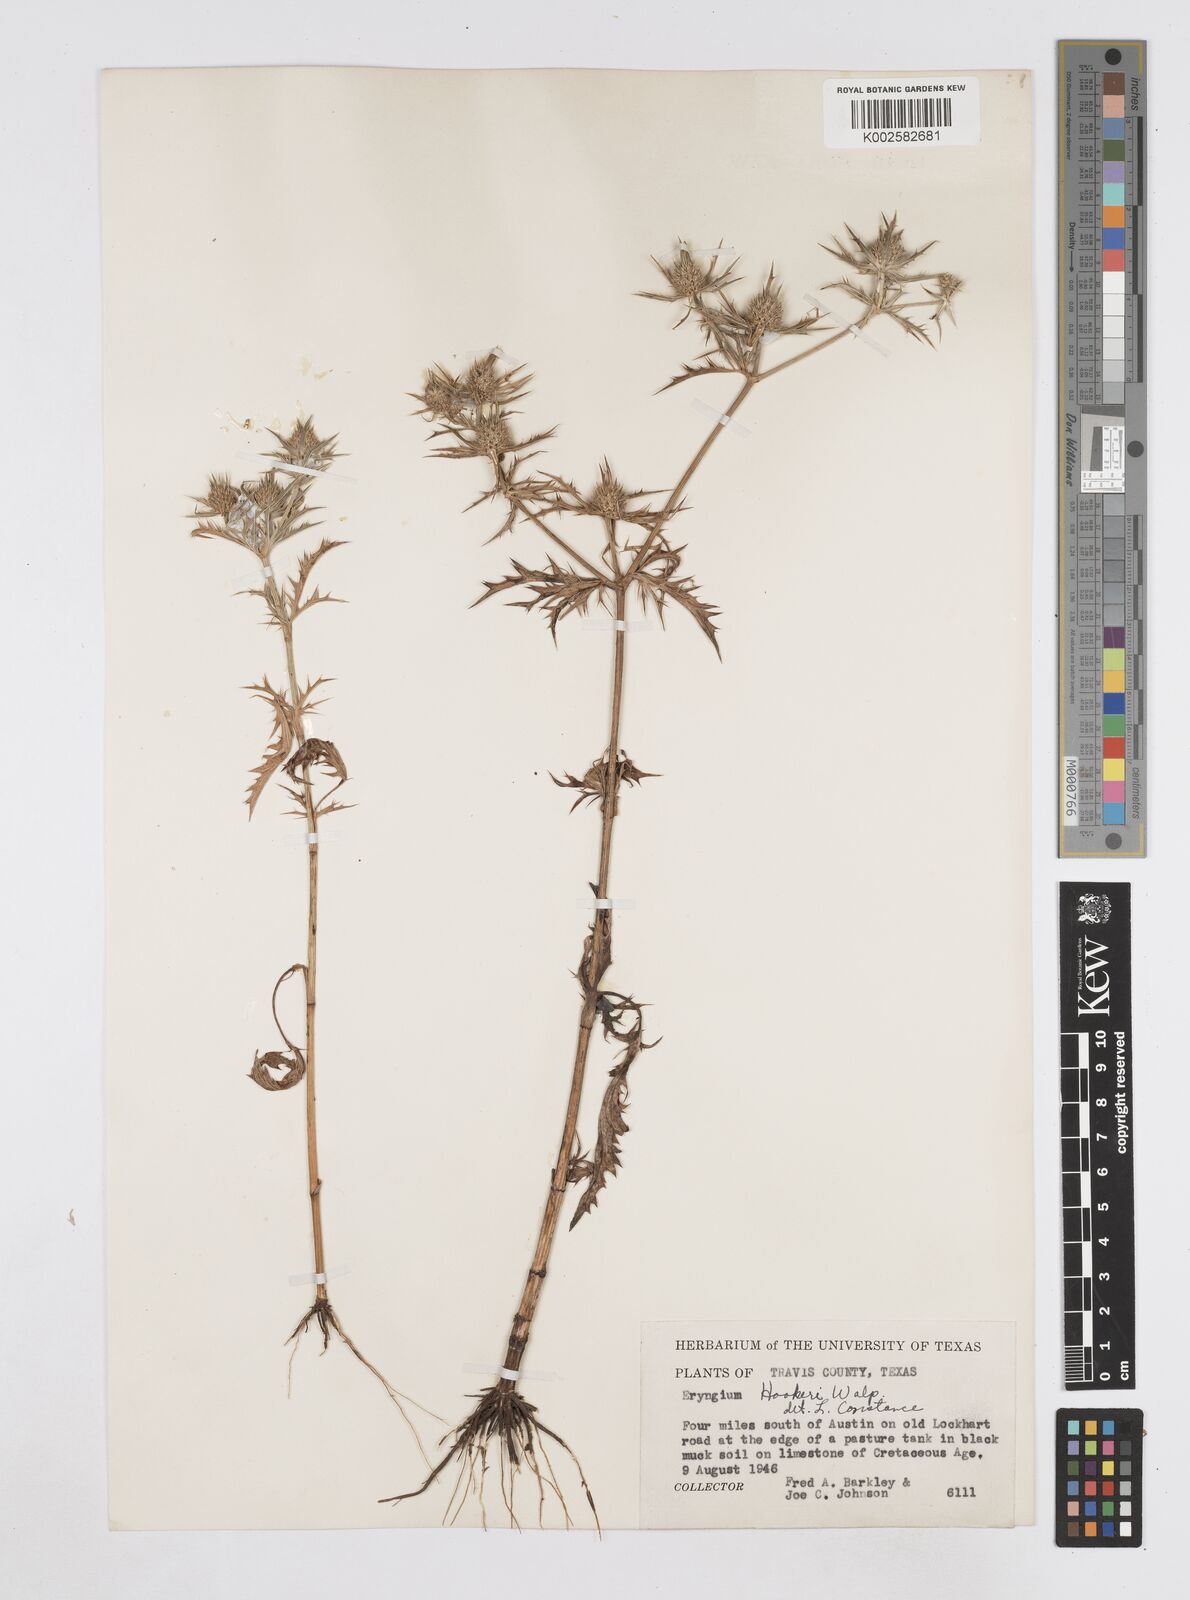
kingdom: Plantae
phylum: Tracheophyta
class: Magnoliopsida
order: Apiales
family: Apiaceae
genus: Eryngium
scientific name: Eryngium hookeri
